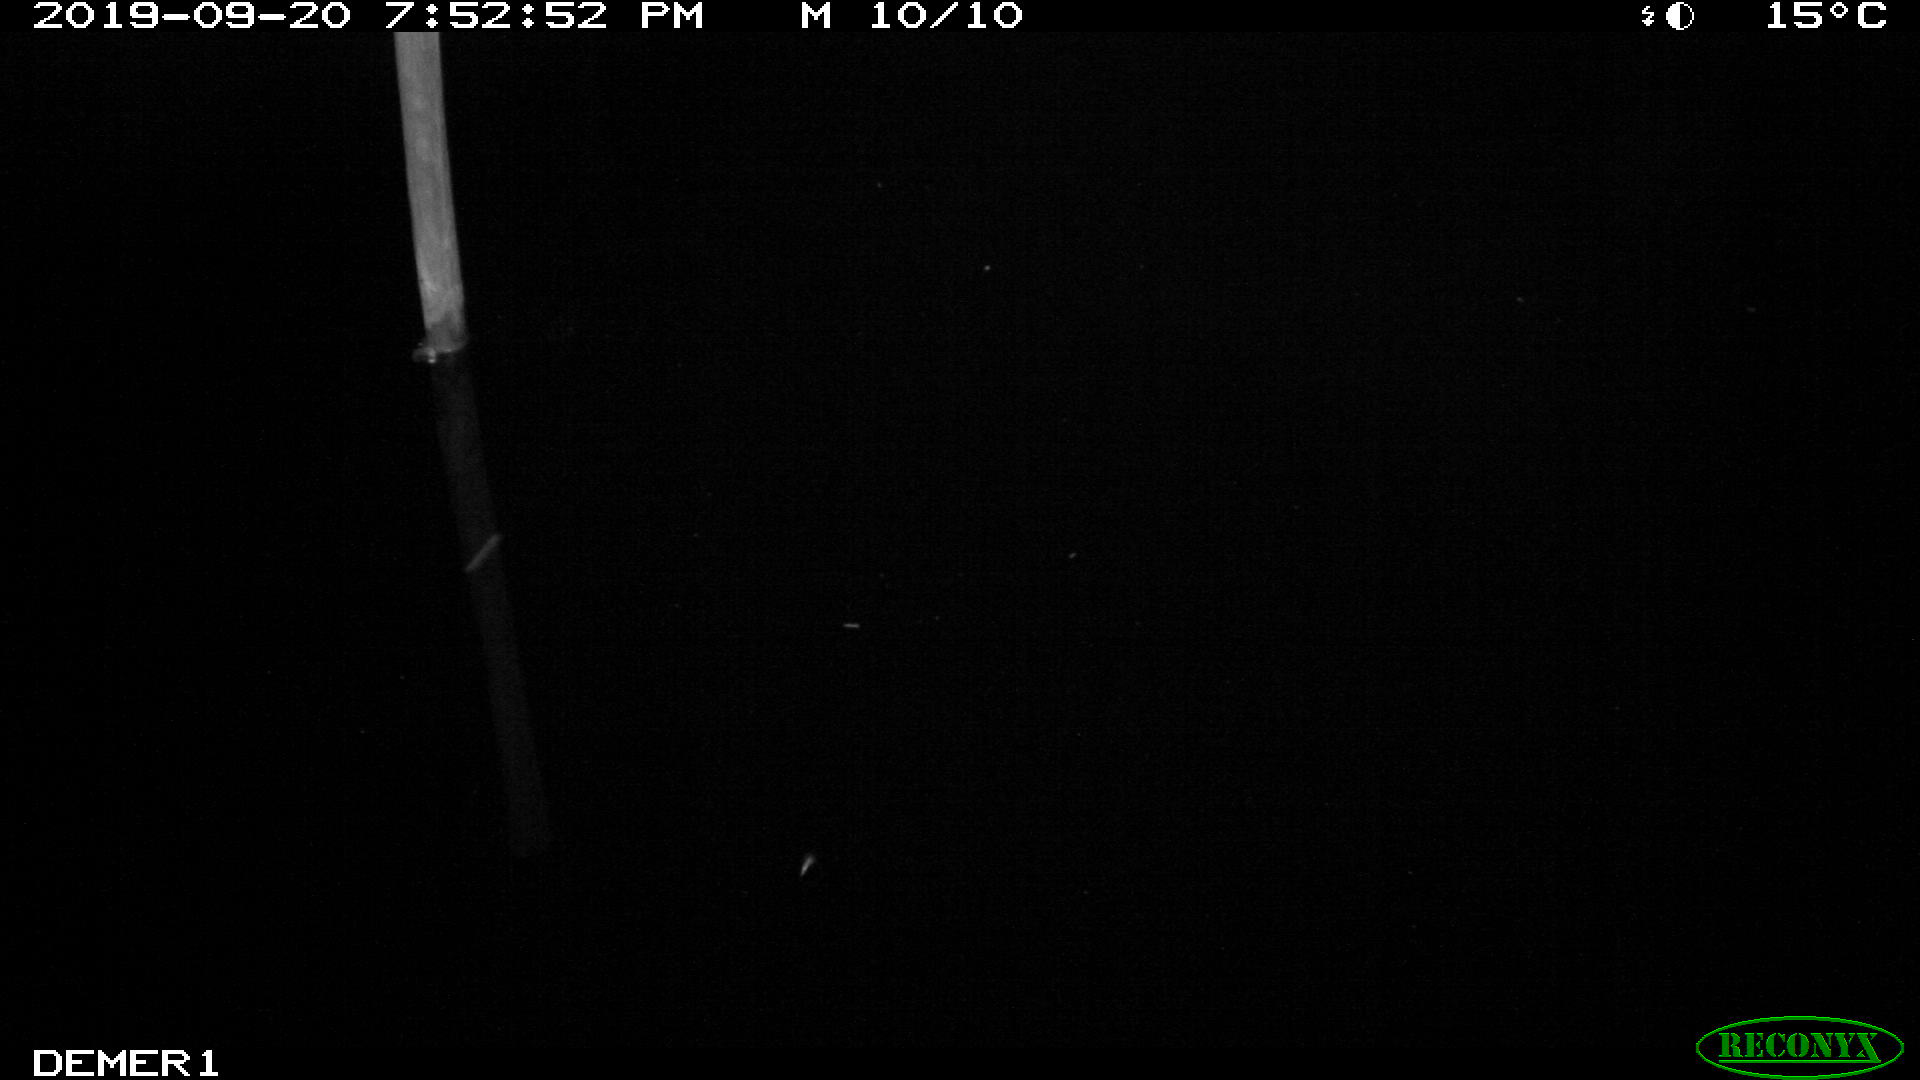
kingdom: Animalia
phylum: Chordata
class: Aves
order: Anseriformes
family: Anatidae
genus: Anas
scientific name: Anas platyrhynchos
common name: Mallard
